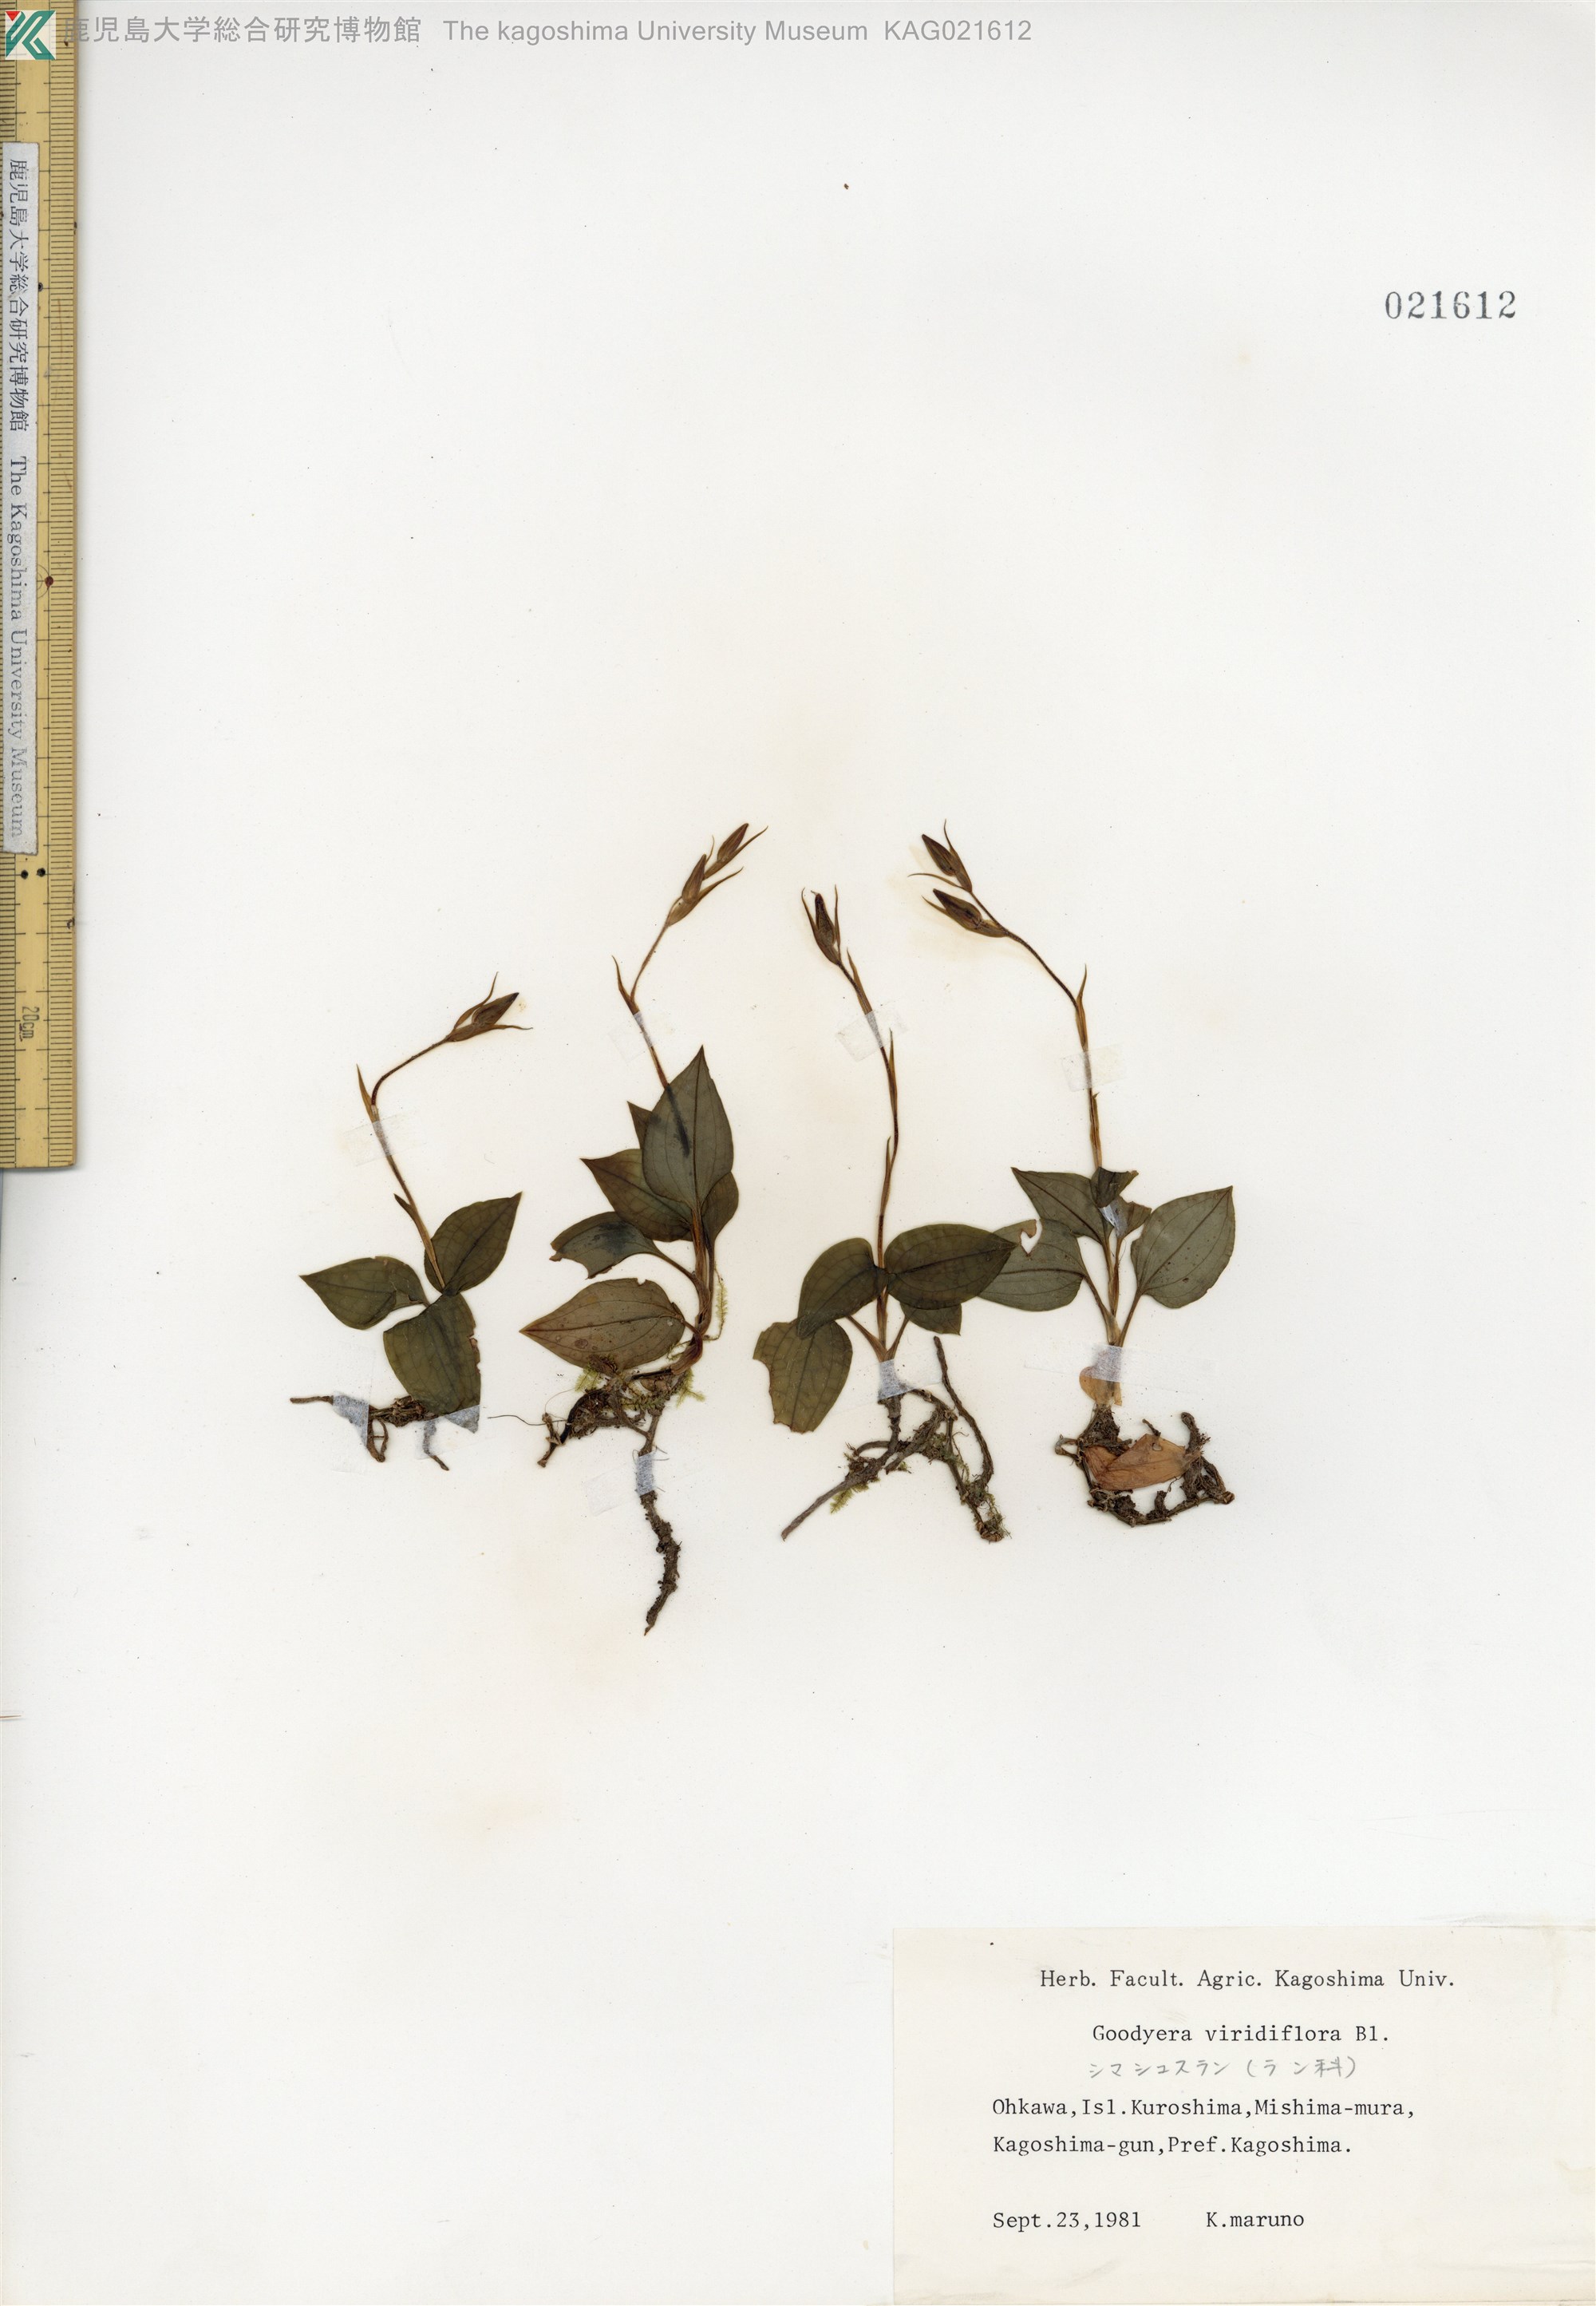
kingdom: Plantae
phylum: Tracheophyta
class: Liliopsida
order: Asparagales
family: Orchidaceae
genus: Goodyera
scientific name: Goodyera viridiflora
